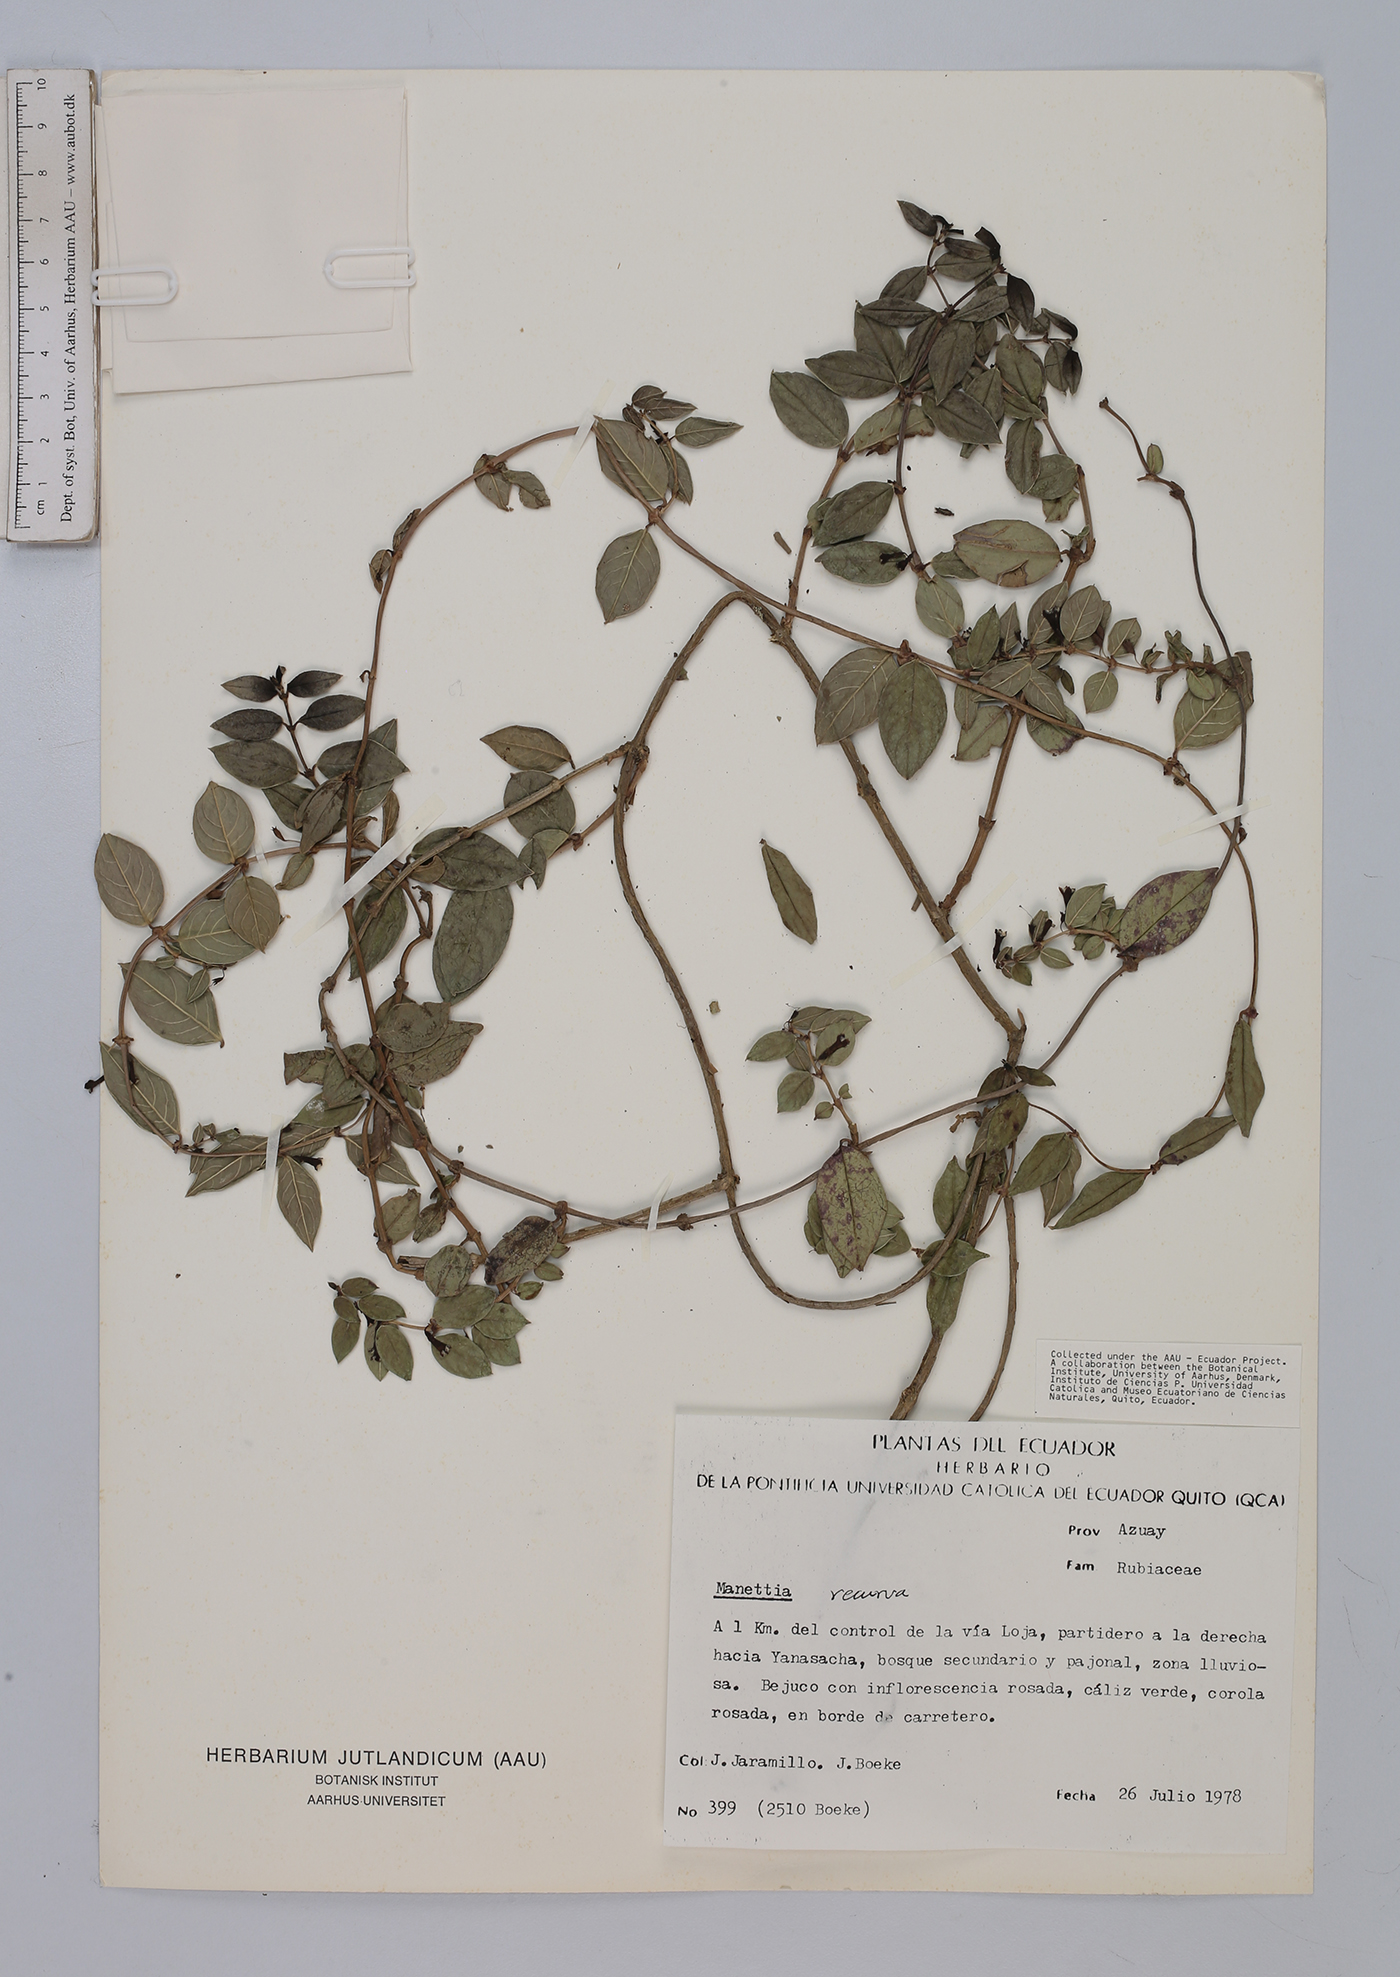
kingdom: Plantae
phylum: Tracheophyta
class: Magnoliopsida
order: Gentianales
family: Rubiaceae
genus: Manettia
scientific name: Manettia recurva
